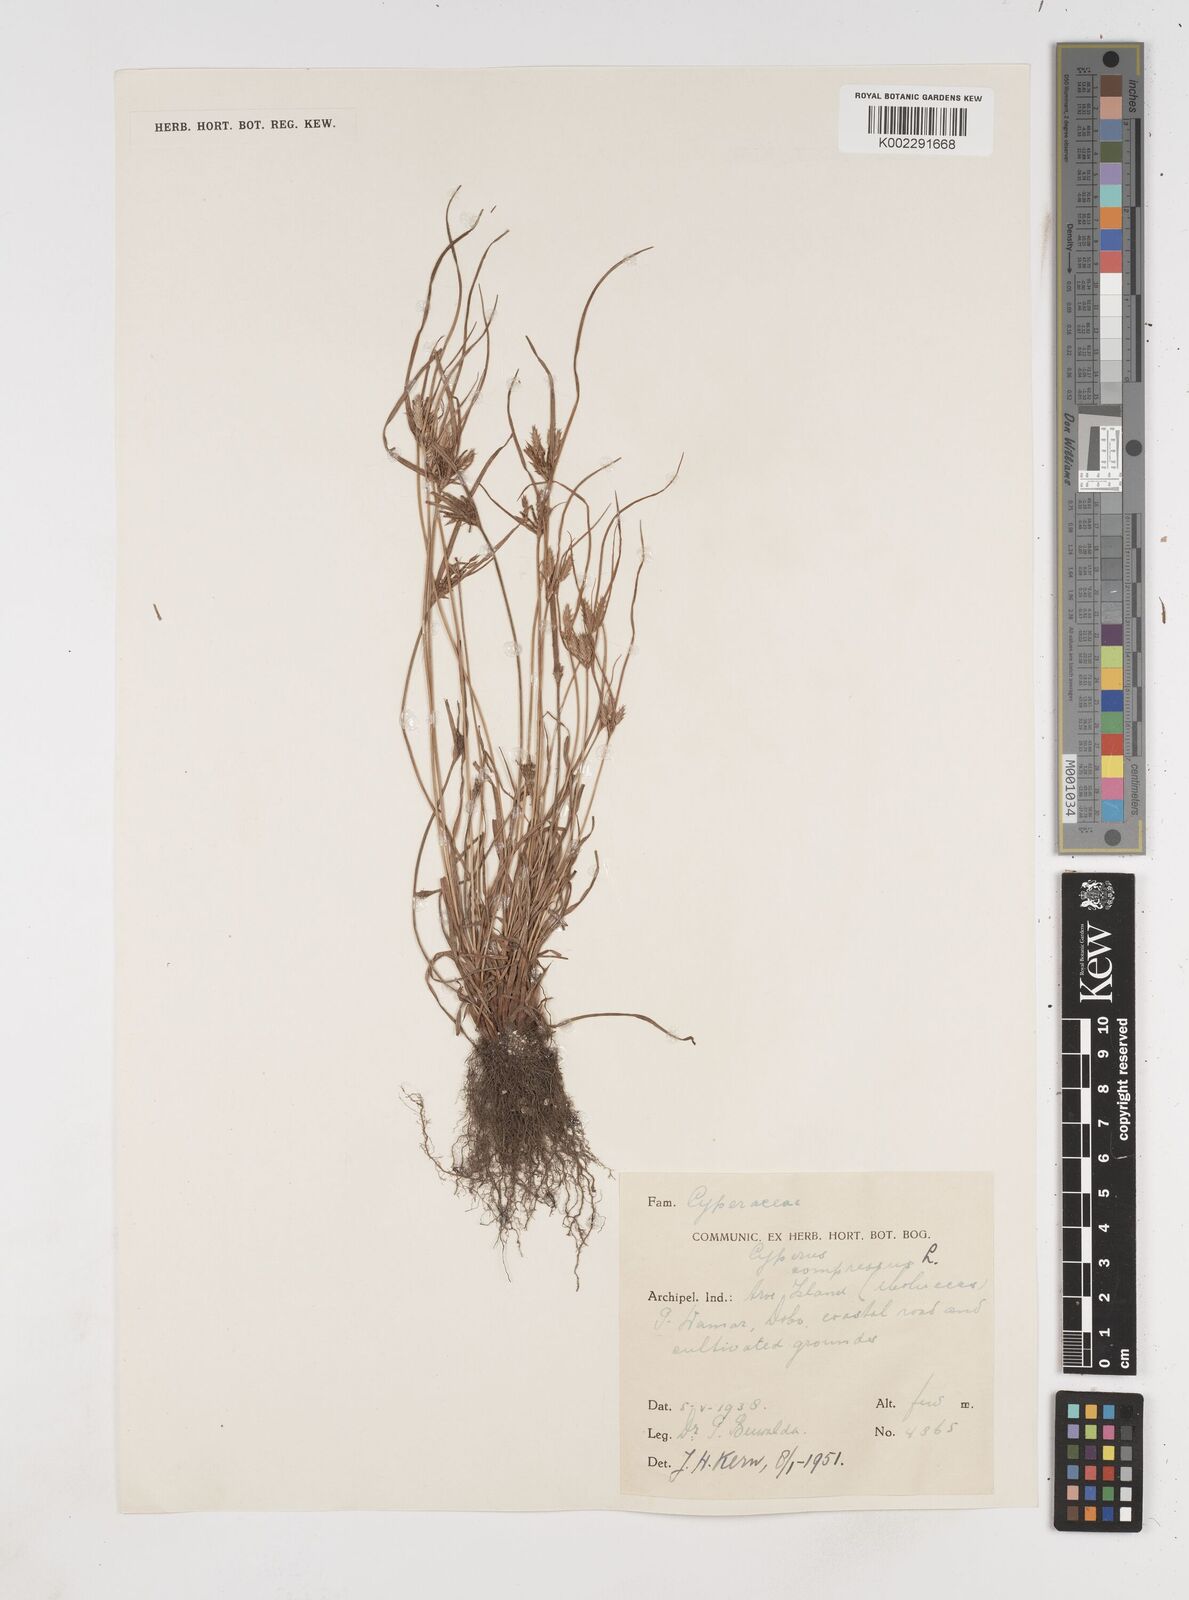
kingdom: Plantae
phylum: Tracheophyta
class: Liliopsida
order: Poales
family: Cyperaceae
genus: Cyperus
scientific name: Cyperus compressus
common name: Poorland flatsedge
